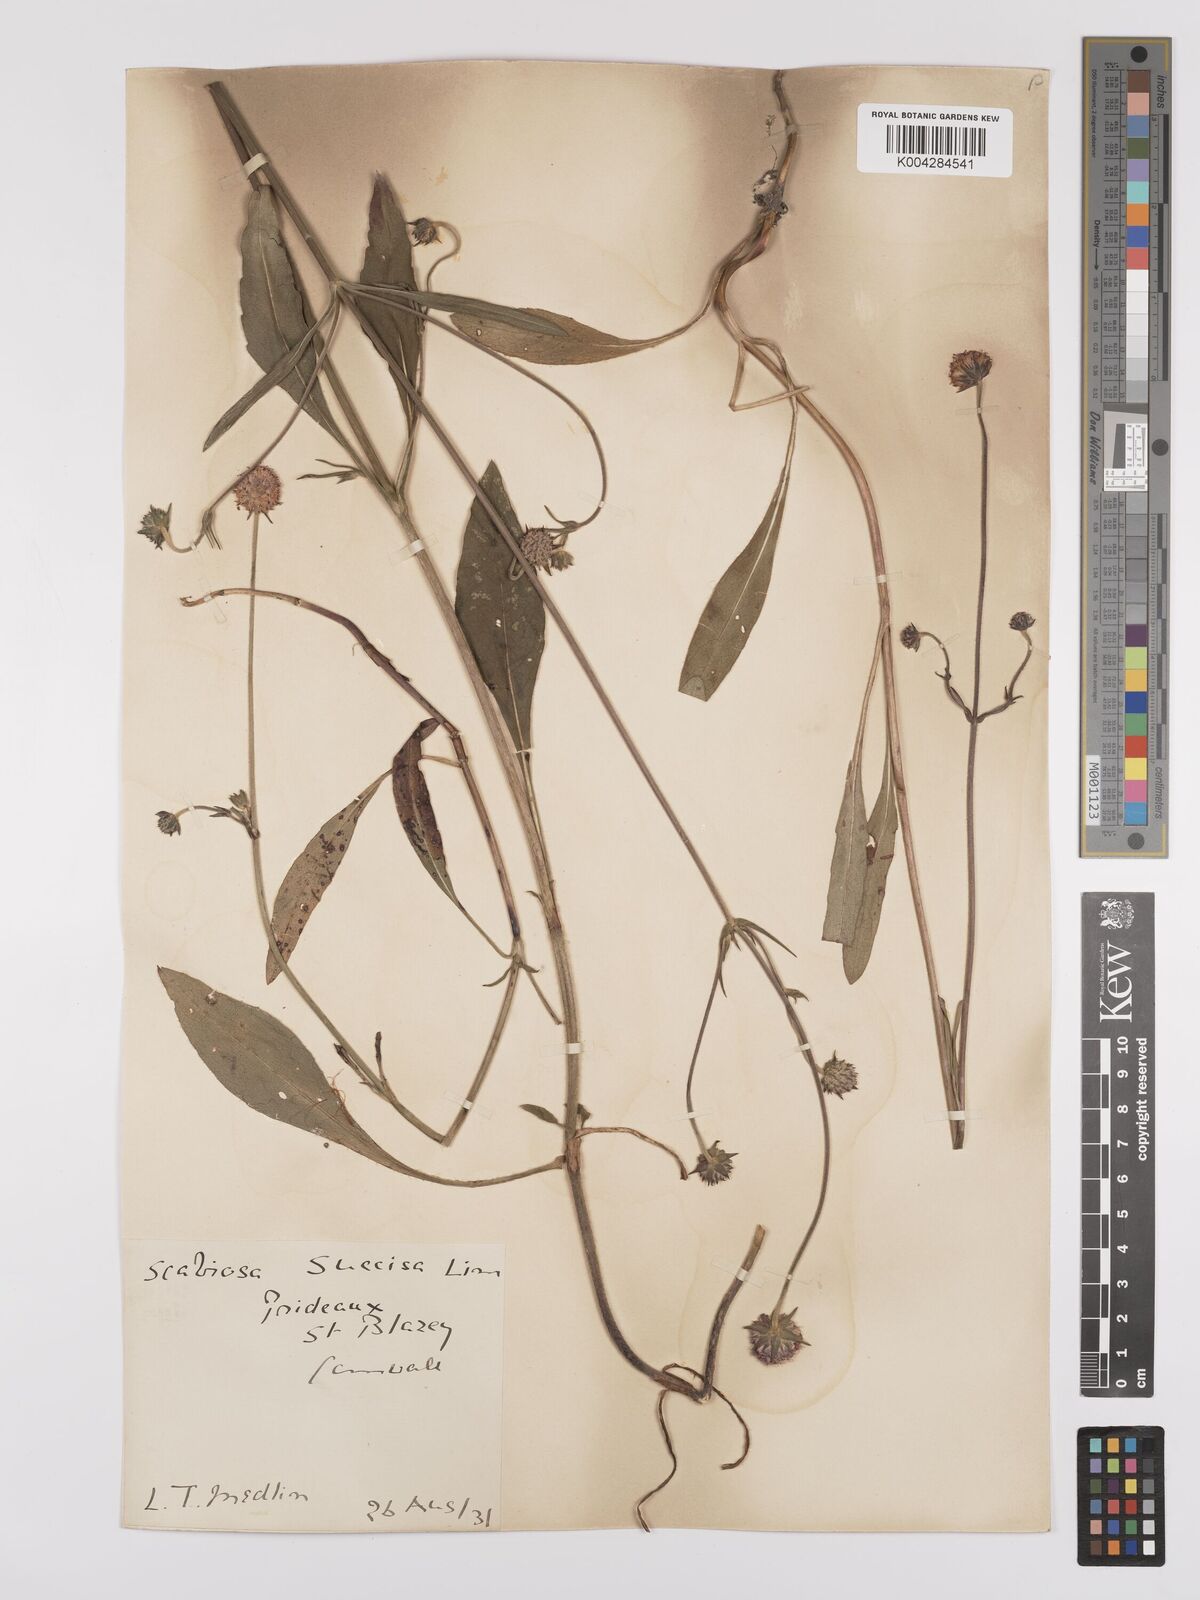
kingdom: Plantae
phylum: Tracheophyta
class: Magnoliopsida
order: Dipsacales
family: Caprifoliaceae
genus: Succisa
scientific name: Succisa pratensis
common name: Devil's-bit
